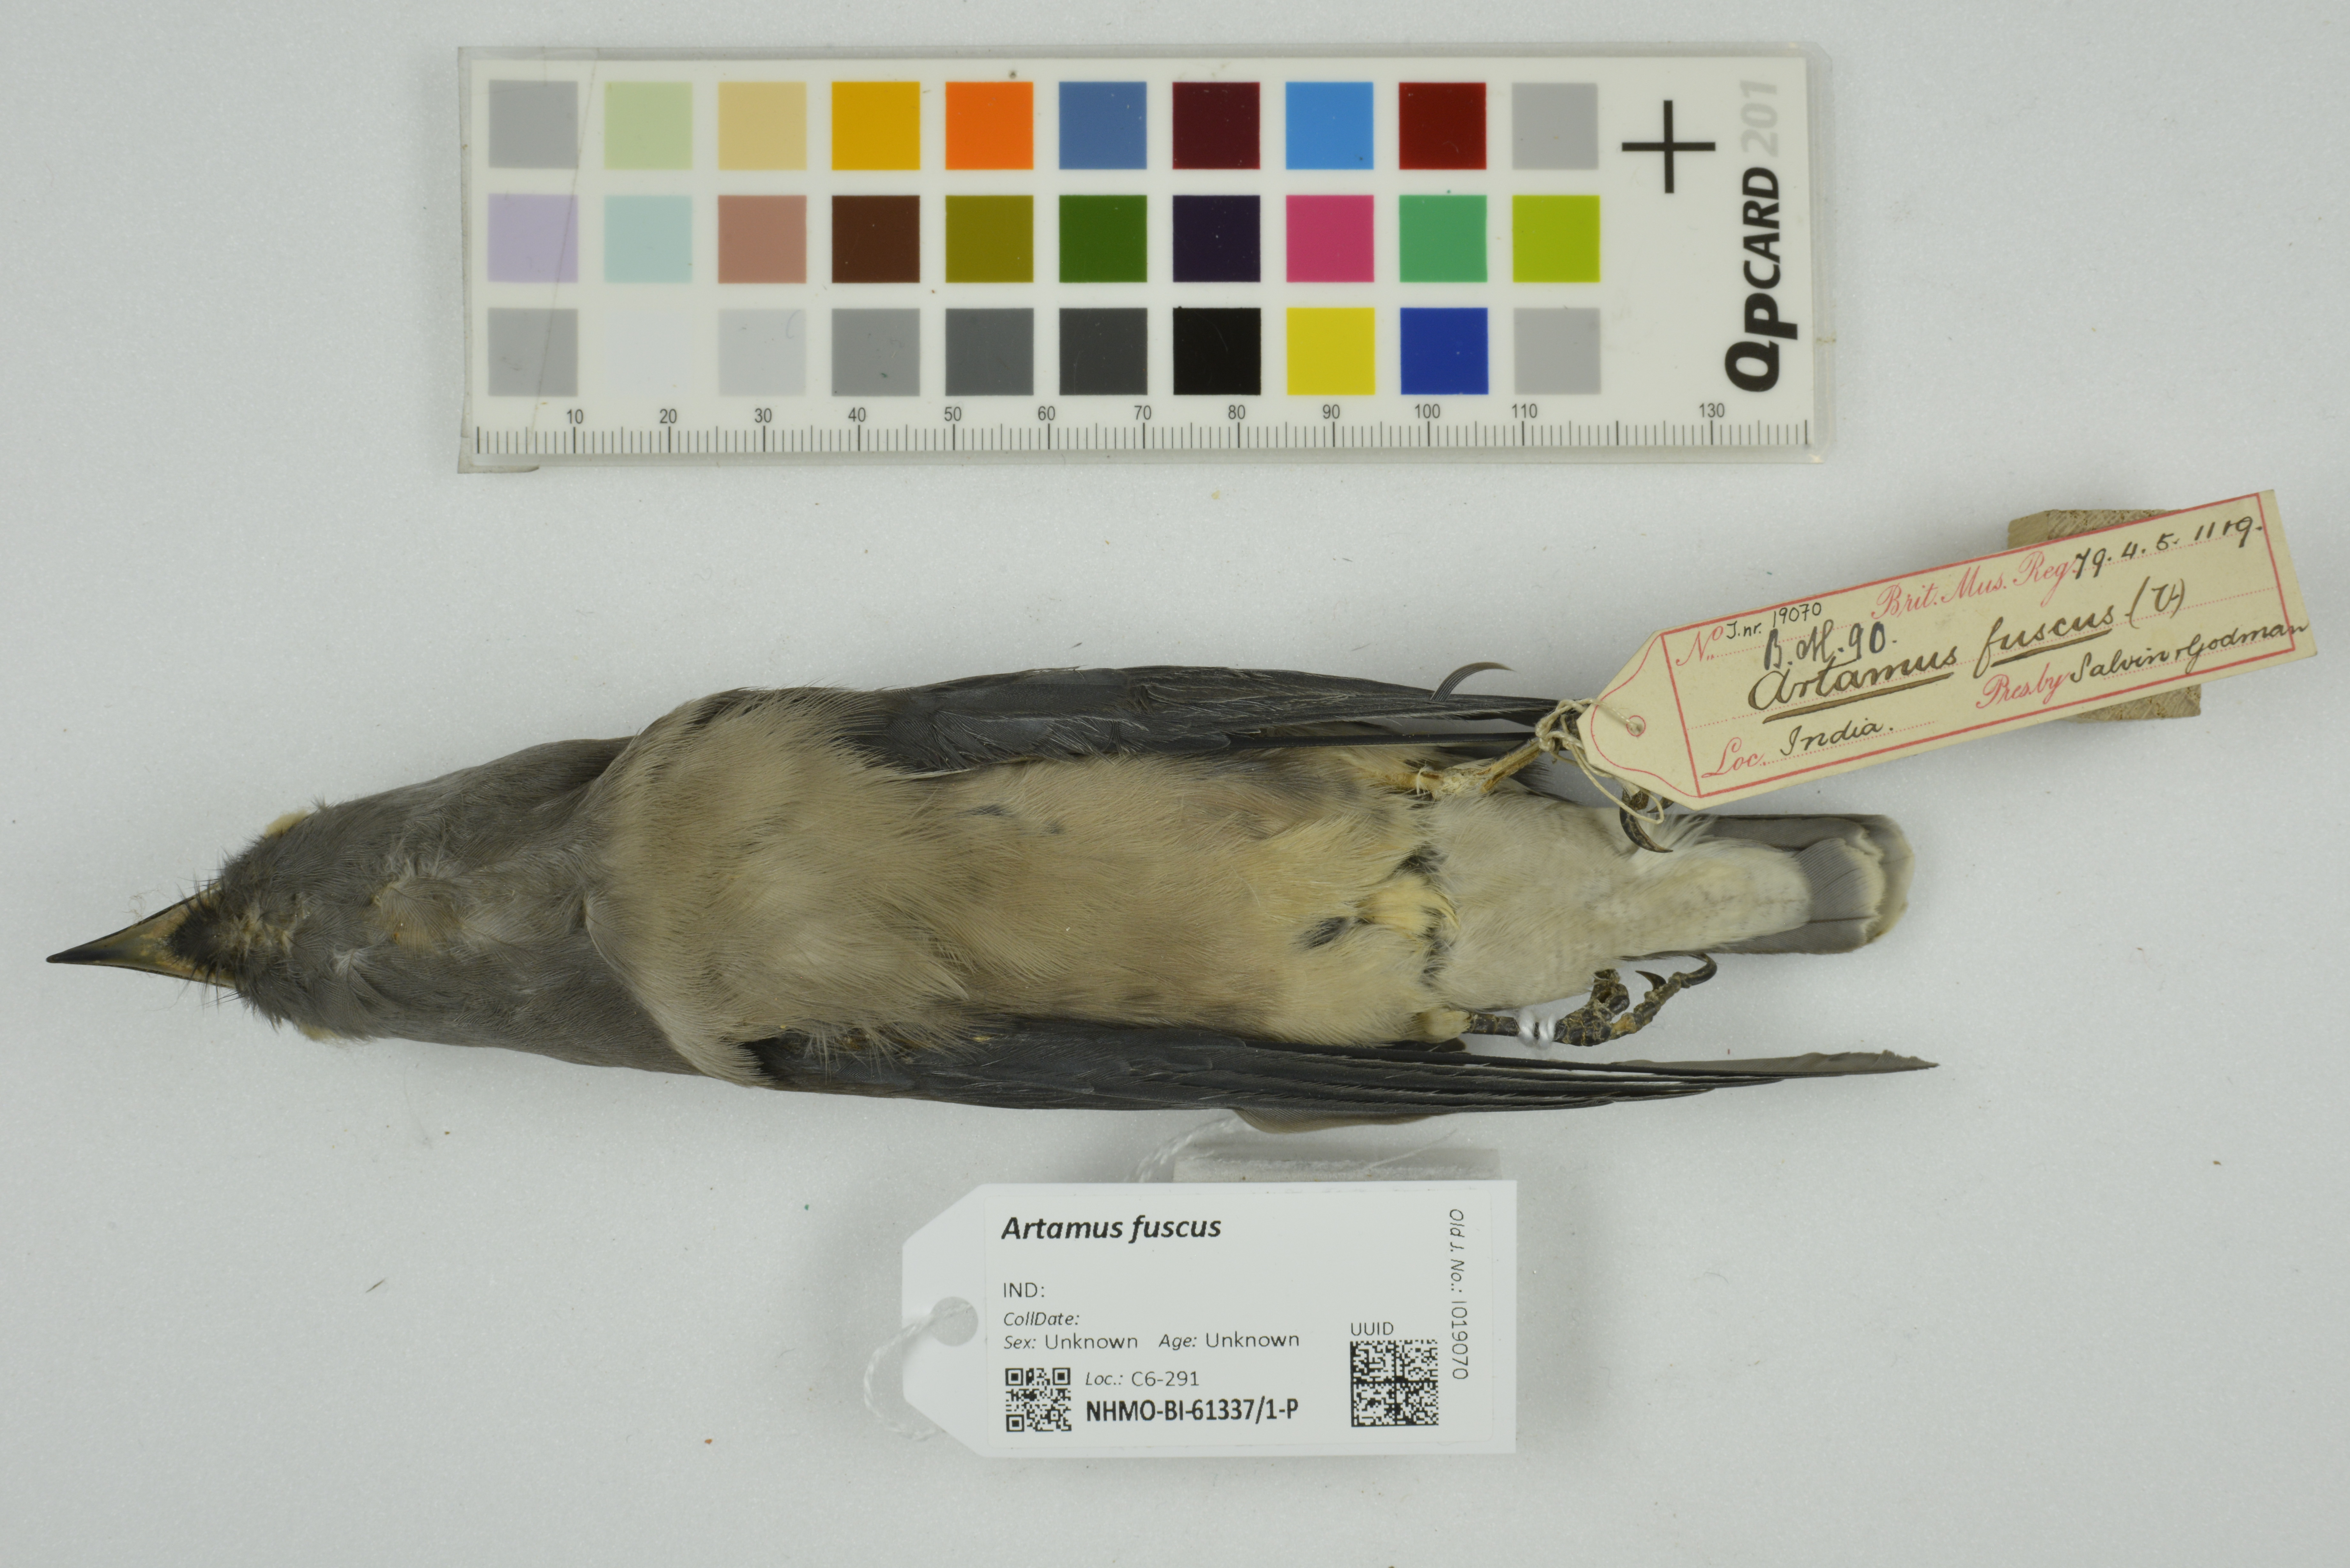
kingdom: Animalia
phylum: Chordata
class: Aves
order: Passeriformes
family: Artamidae
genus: Artamus
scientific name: Artamus fuscus
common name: Ashy woodswallow
